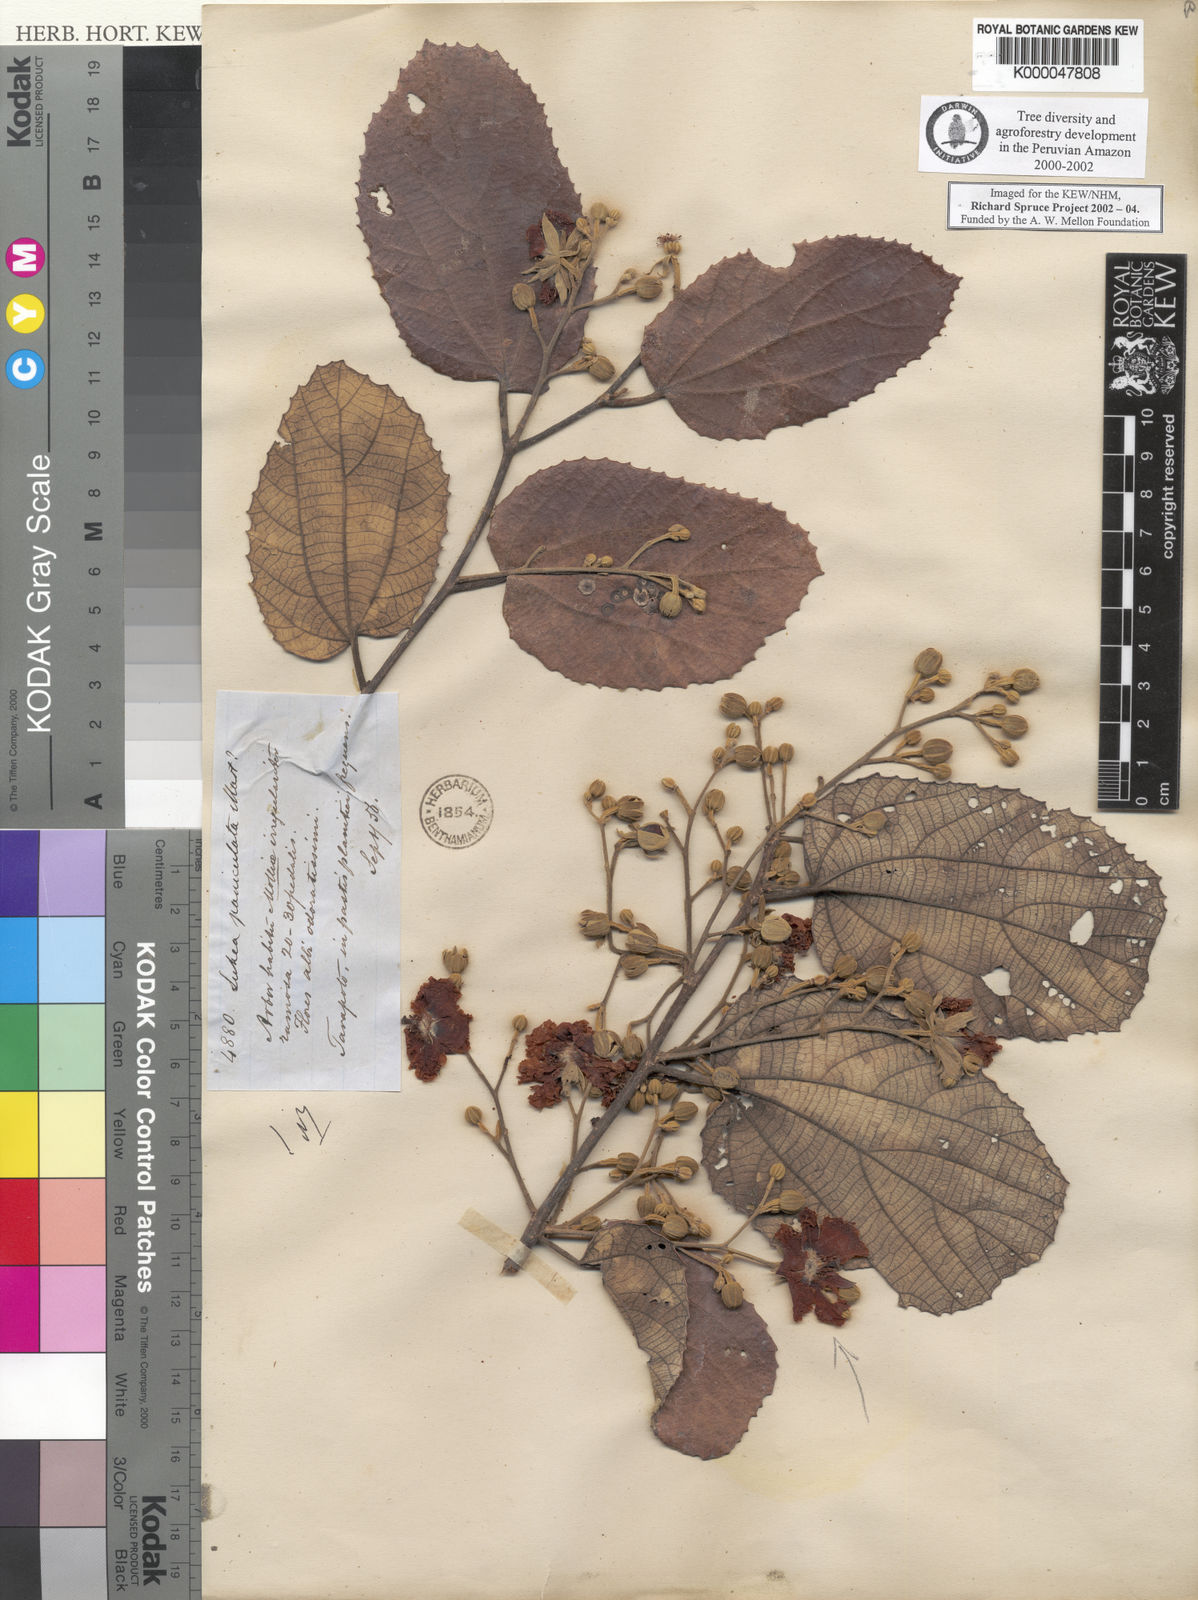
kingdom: Plantae
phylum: Tracheophyta
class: Magnoliopsida
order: Malvales
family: Malvaceae
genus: Luehea
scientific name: Luehea paniculata
